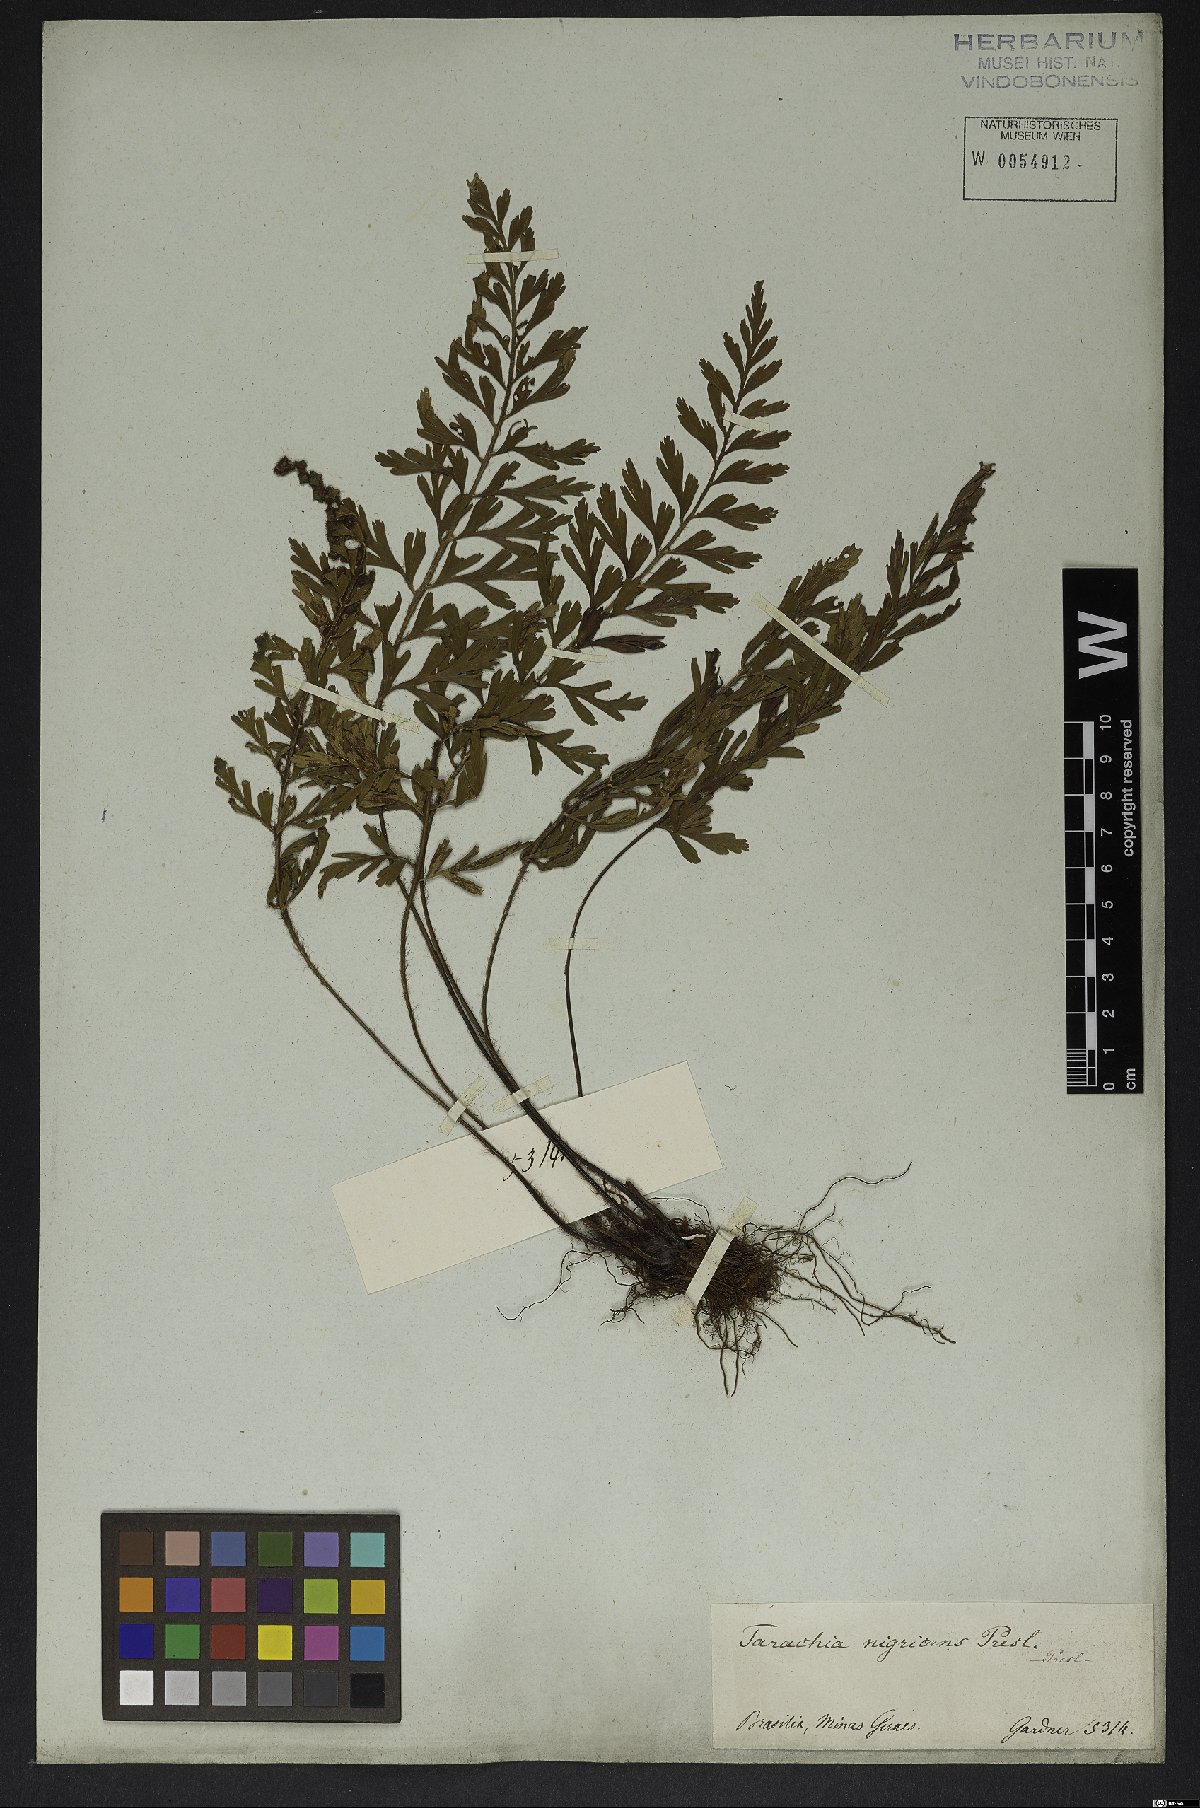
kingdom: Plantae
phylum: Tracheophyta
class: Polypodiopsida
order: Polypodiales
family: Aspleniaceae
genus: Asplenium
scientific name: Asplenium praemorsum
